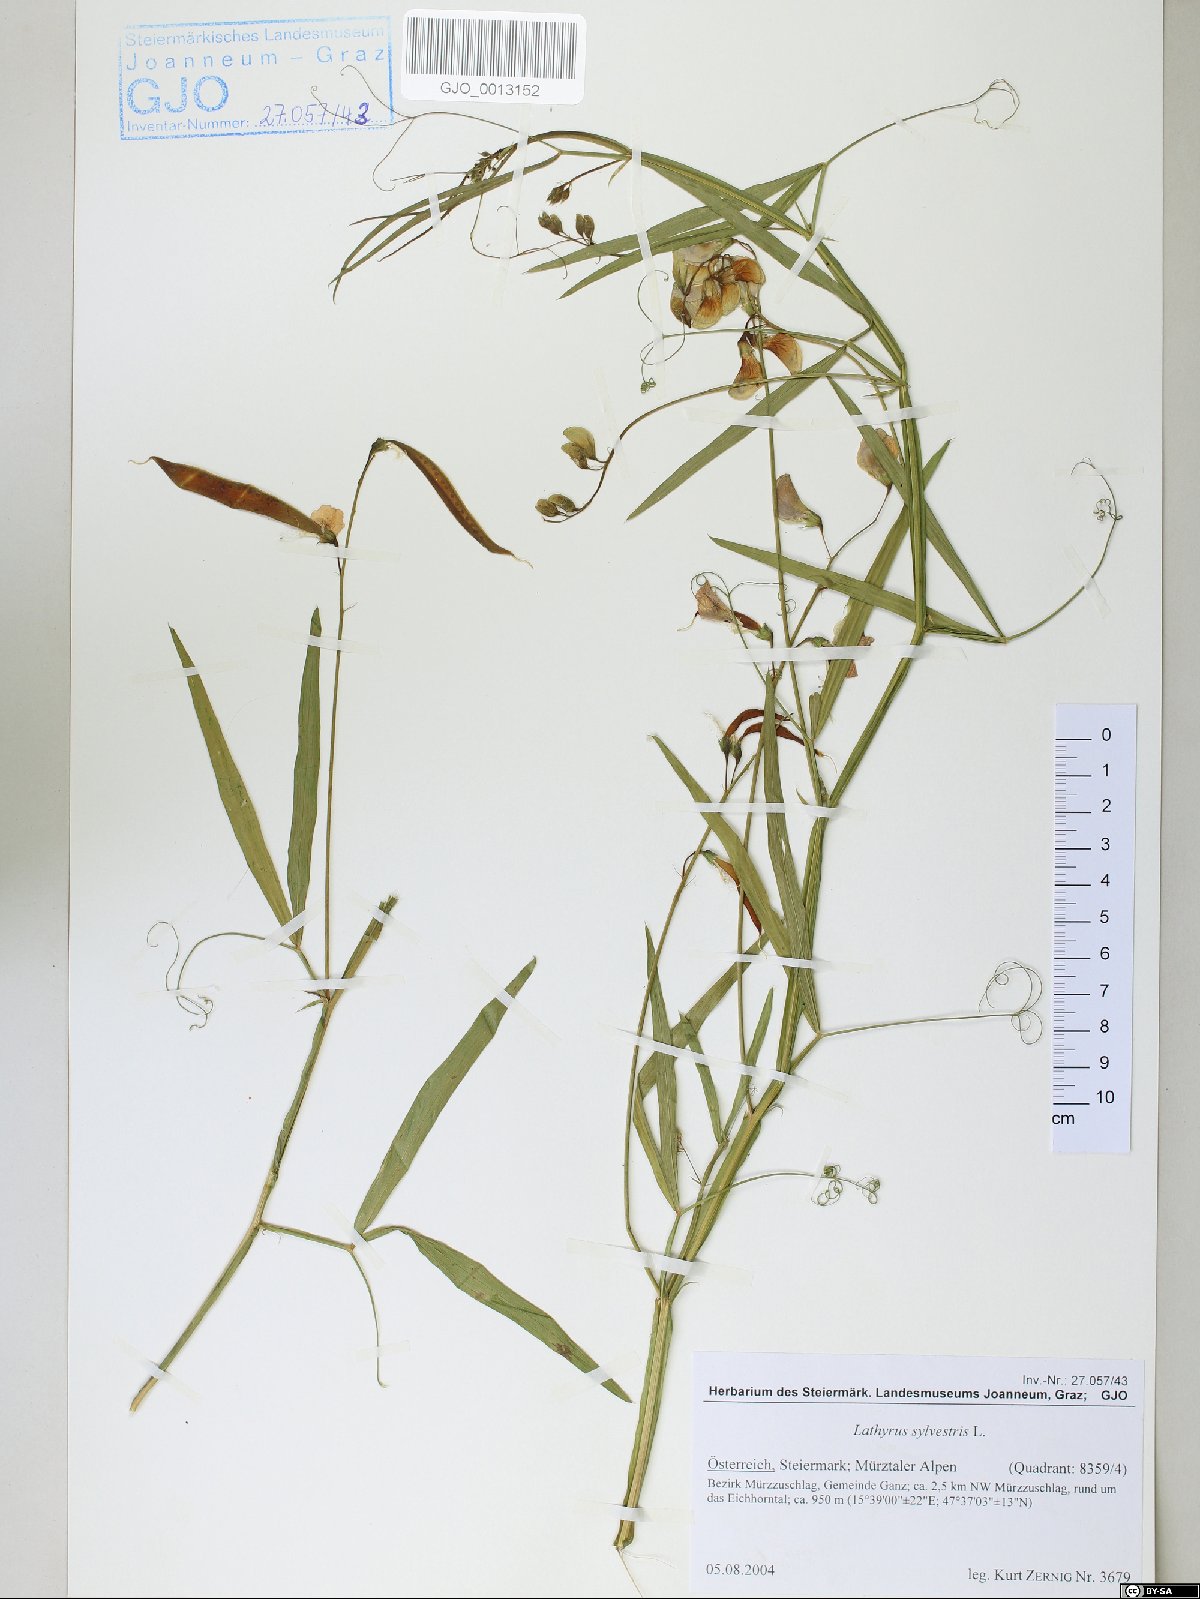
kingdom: Plantae
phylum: Tracheophyta
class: Magnoliopsida
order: Fabales
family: Fabaceae
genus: Lathyrus
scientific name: Lathyrus sylvestris
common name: Flat pea
